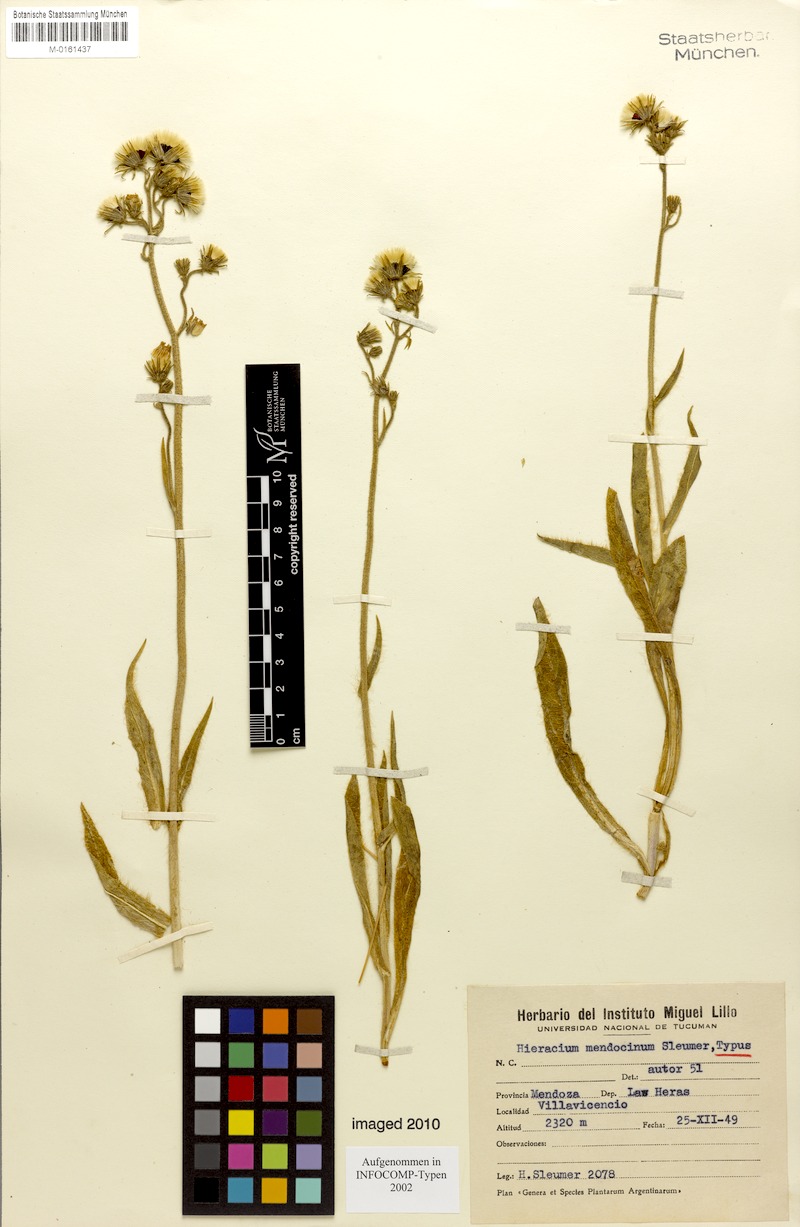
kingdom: Plantae
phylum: Tracheophyta
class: Magnoliopsida
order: Asterales
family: Asteraceae
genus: Hieracium
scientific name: Hieracium mendocinum
